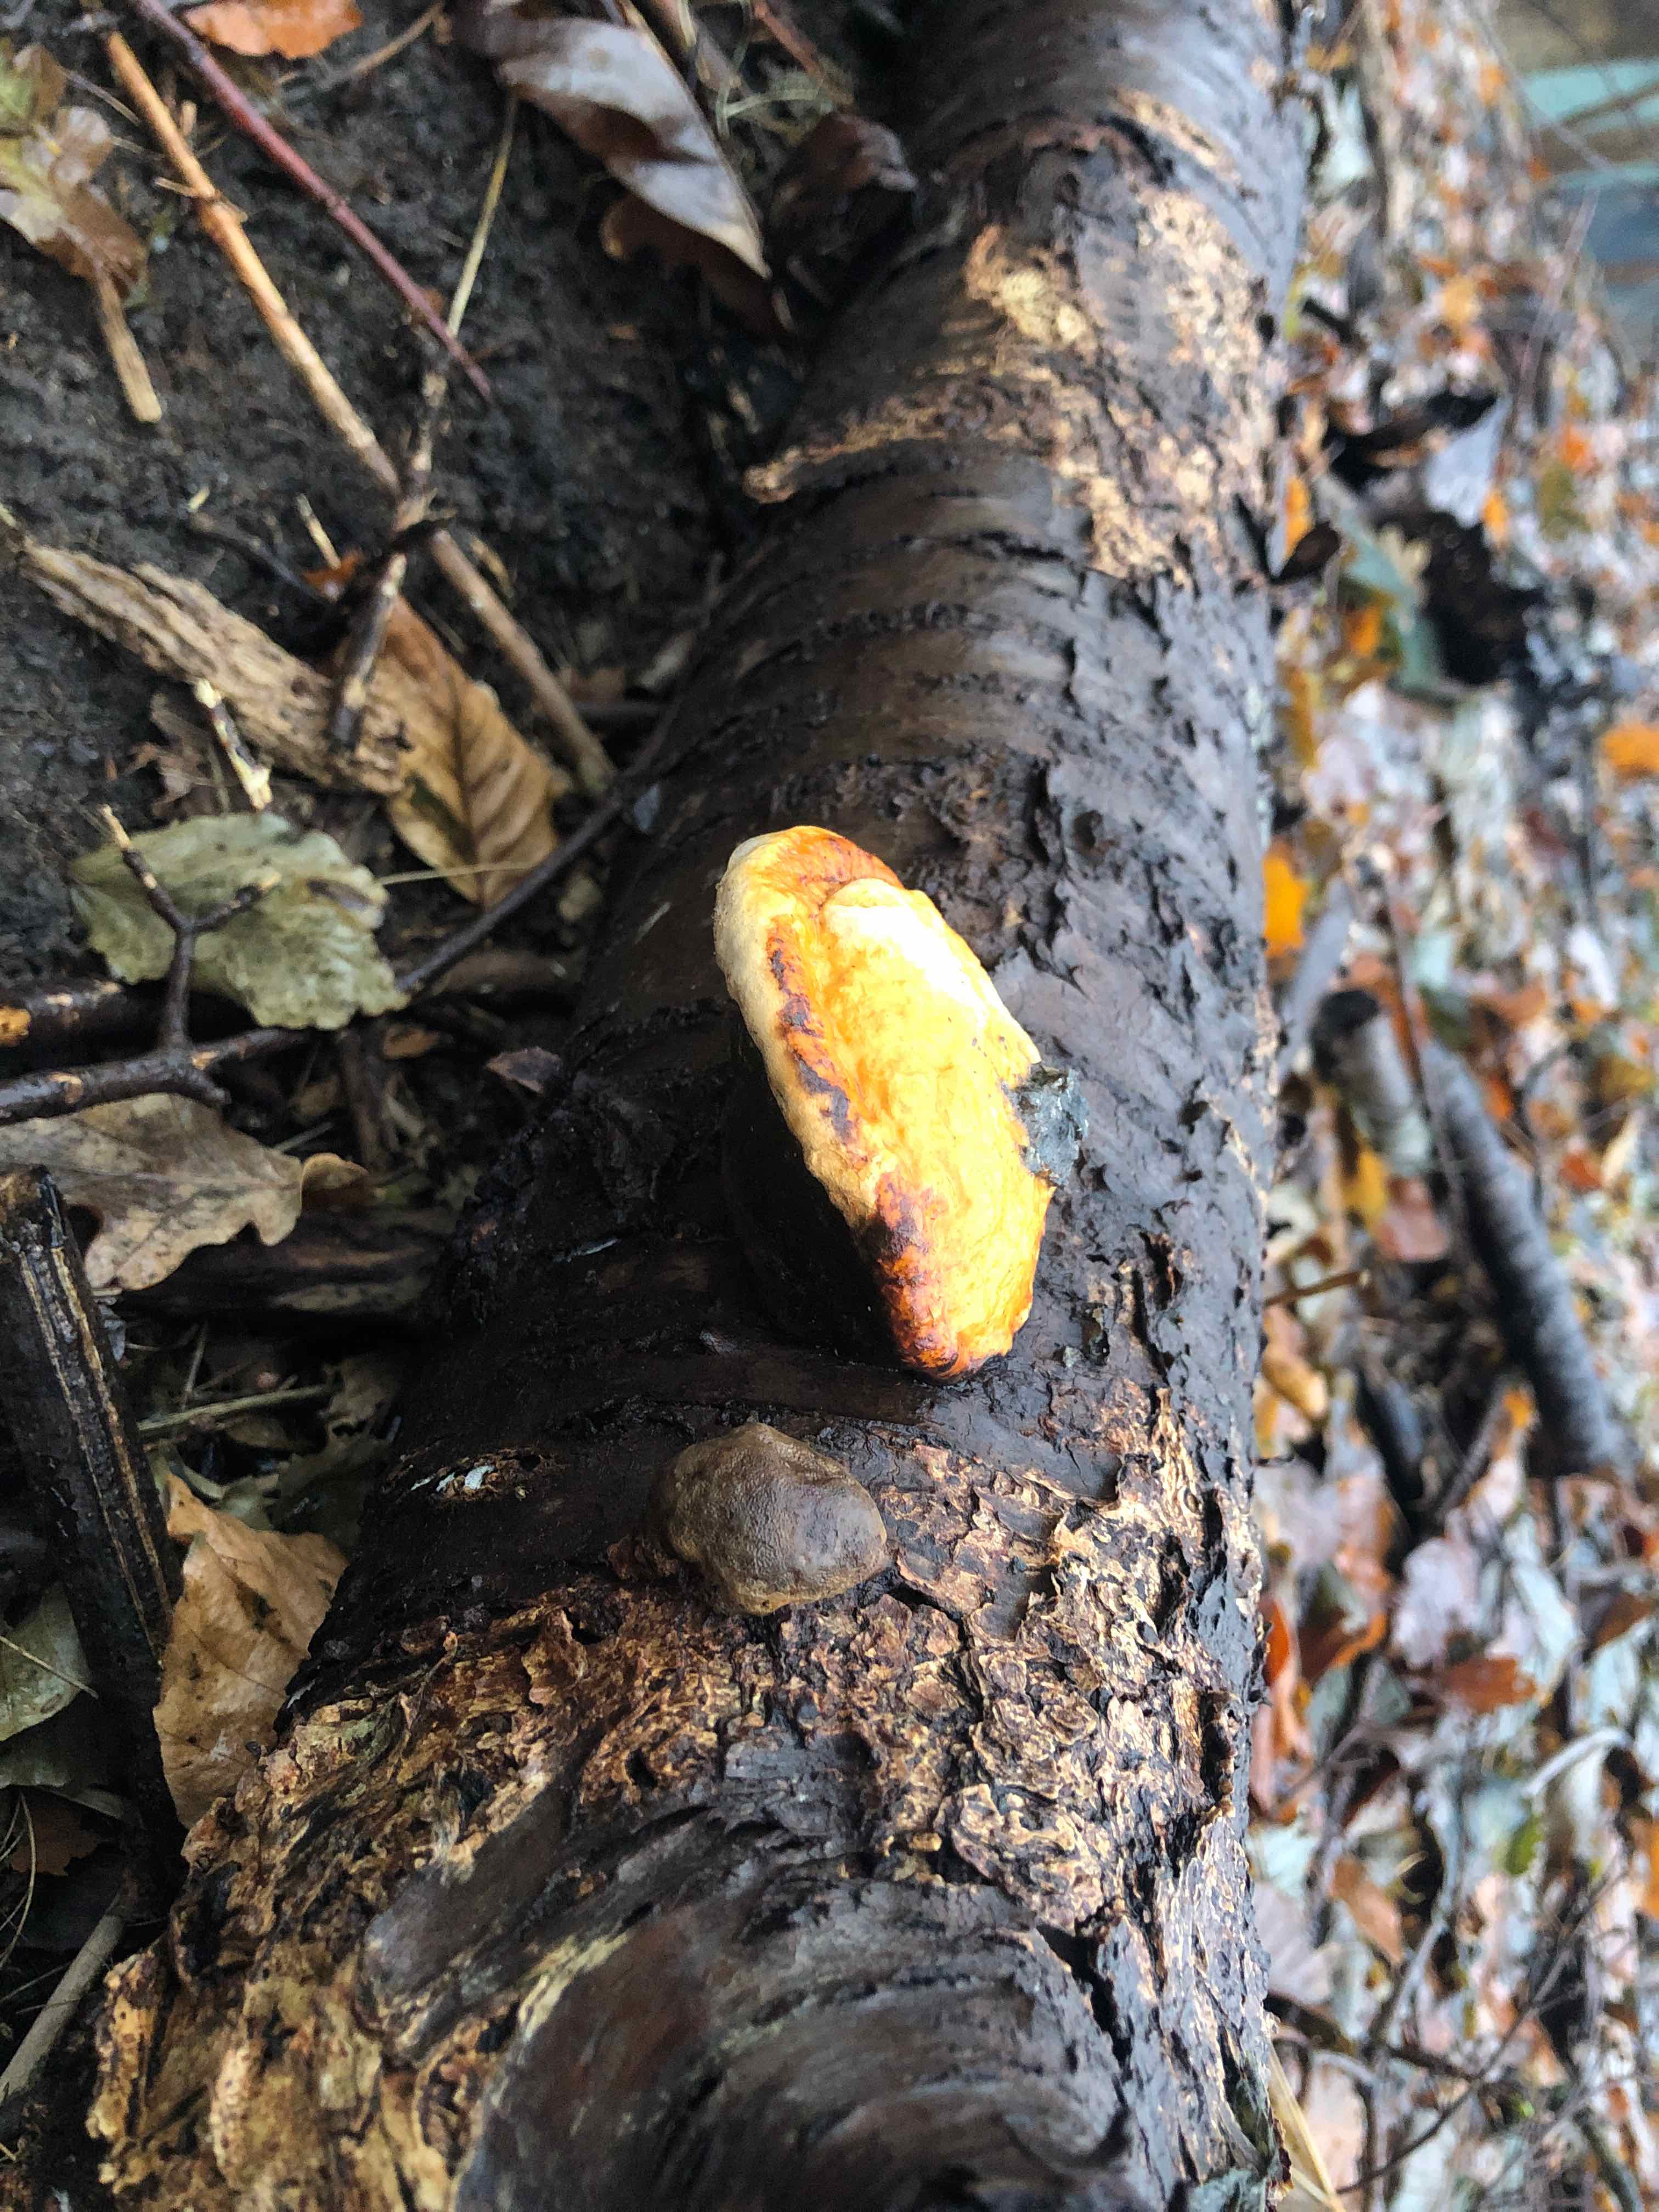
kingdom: Fungi
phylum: Basidiomycota
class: Agaricomycetes
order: Polyporales
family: Fomitopsidaceae
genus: Fomitopsis
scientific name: Fomitopsis pinicola
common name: randbæltet hovporesvamp
